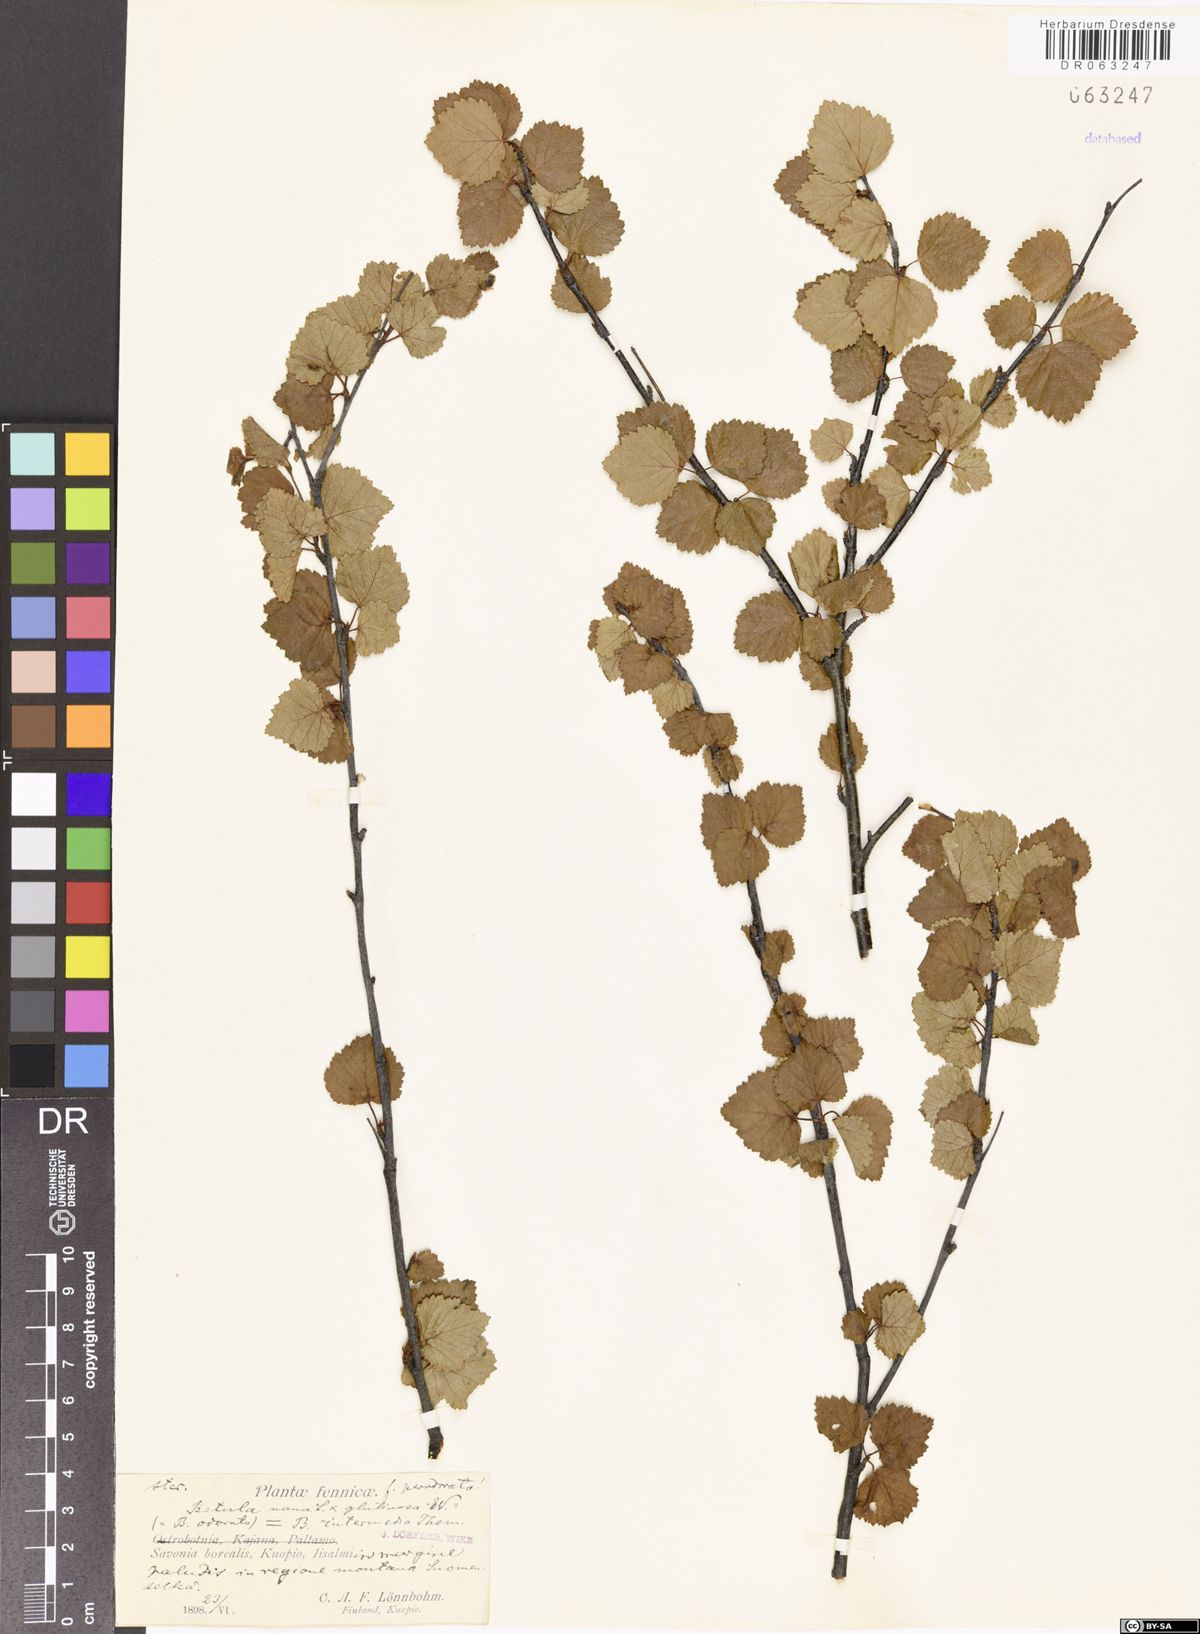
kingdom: Plantae
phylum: Tracheophyta
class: Magnoliopsida
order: Fagales
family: Betulaceae
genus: Betula
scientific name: Betula intermedia
